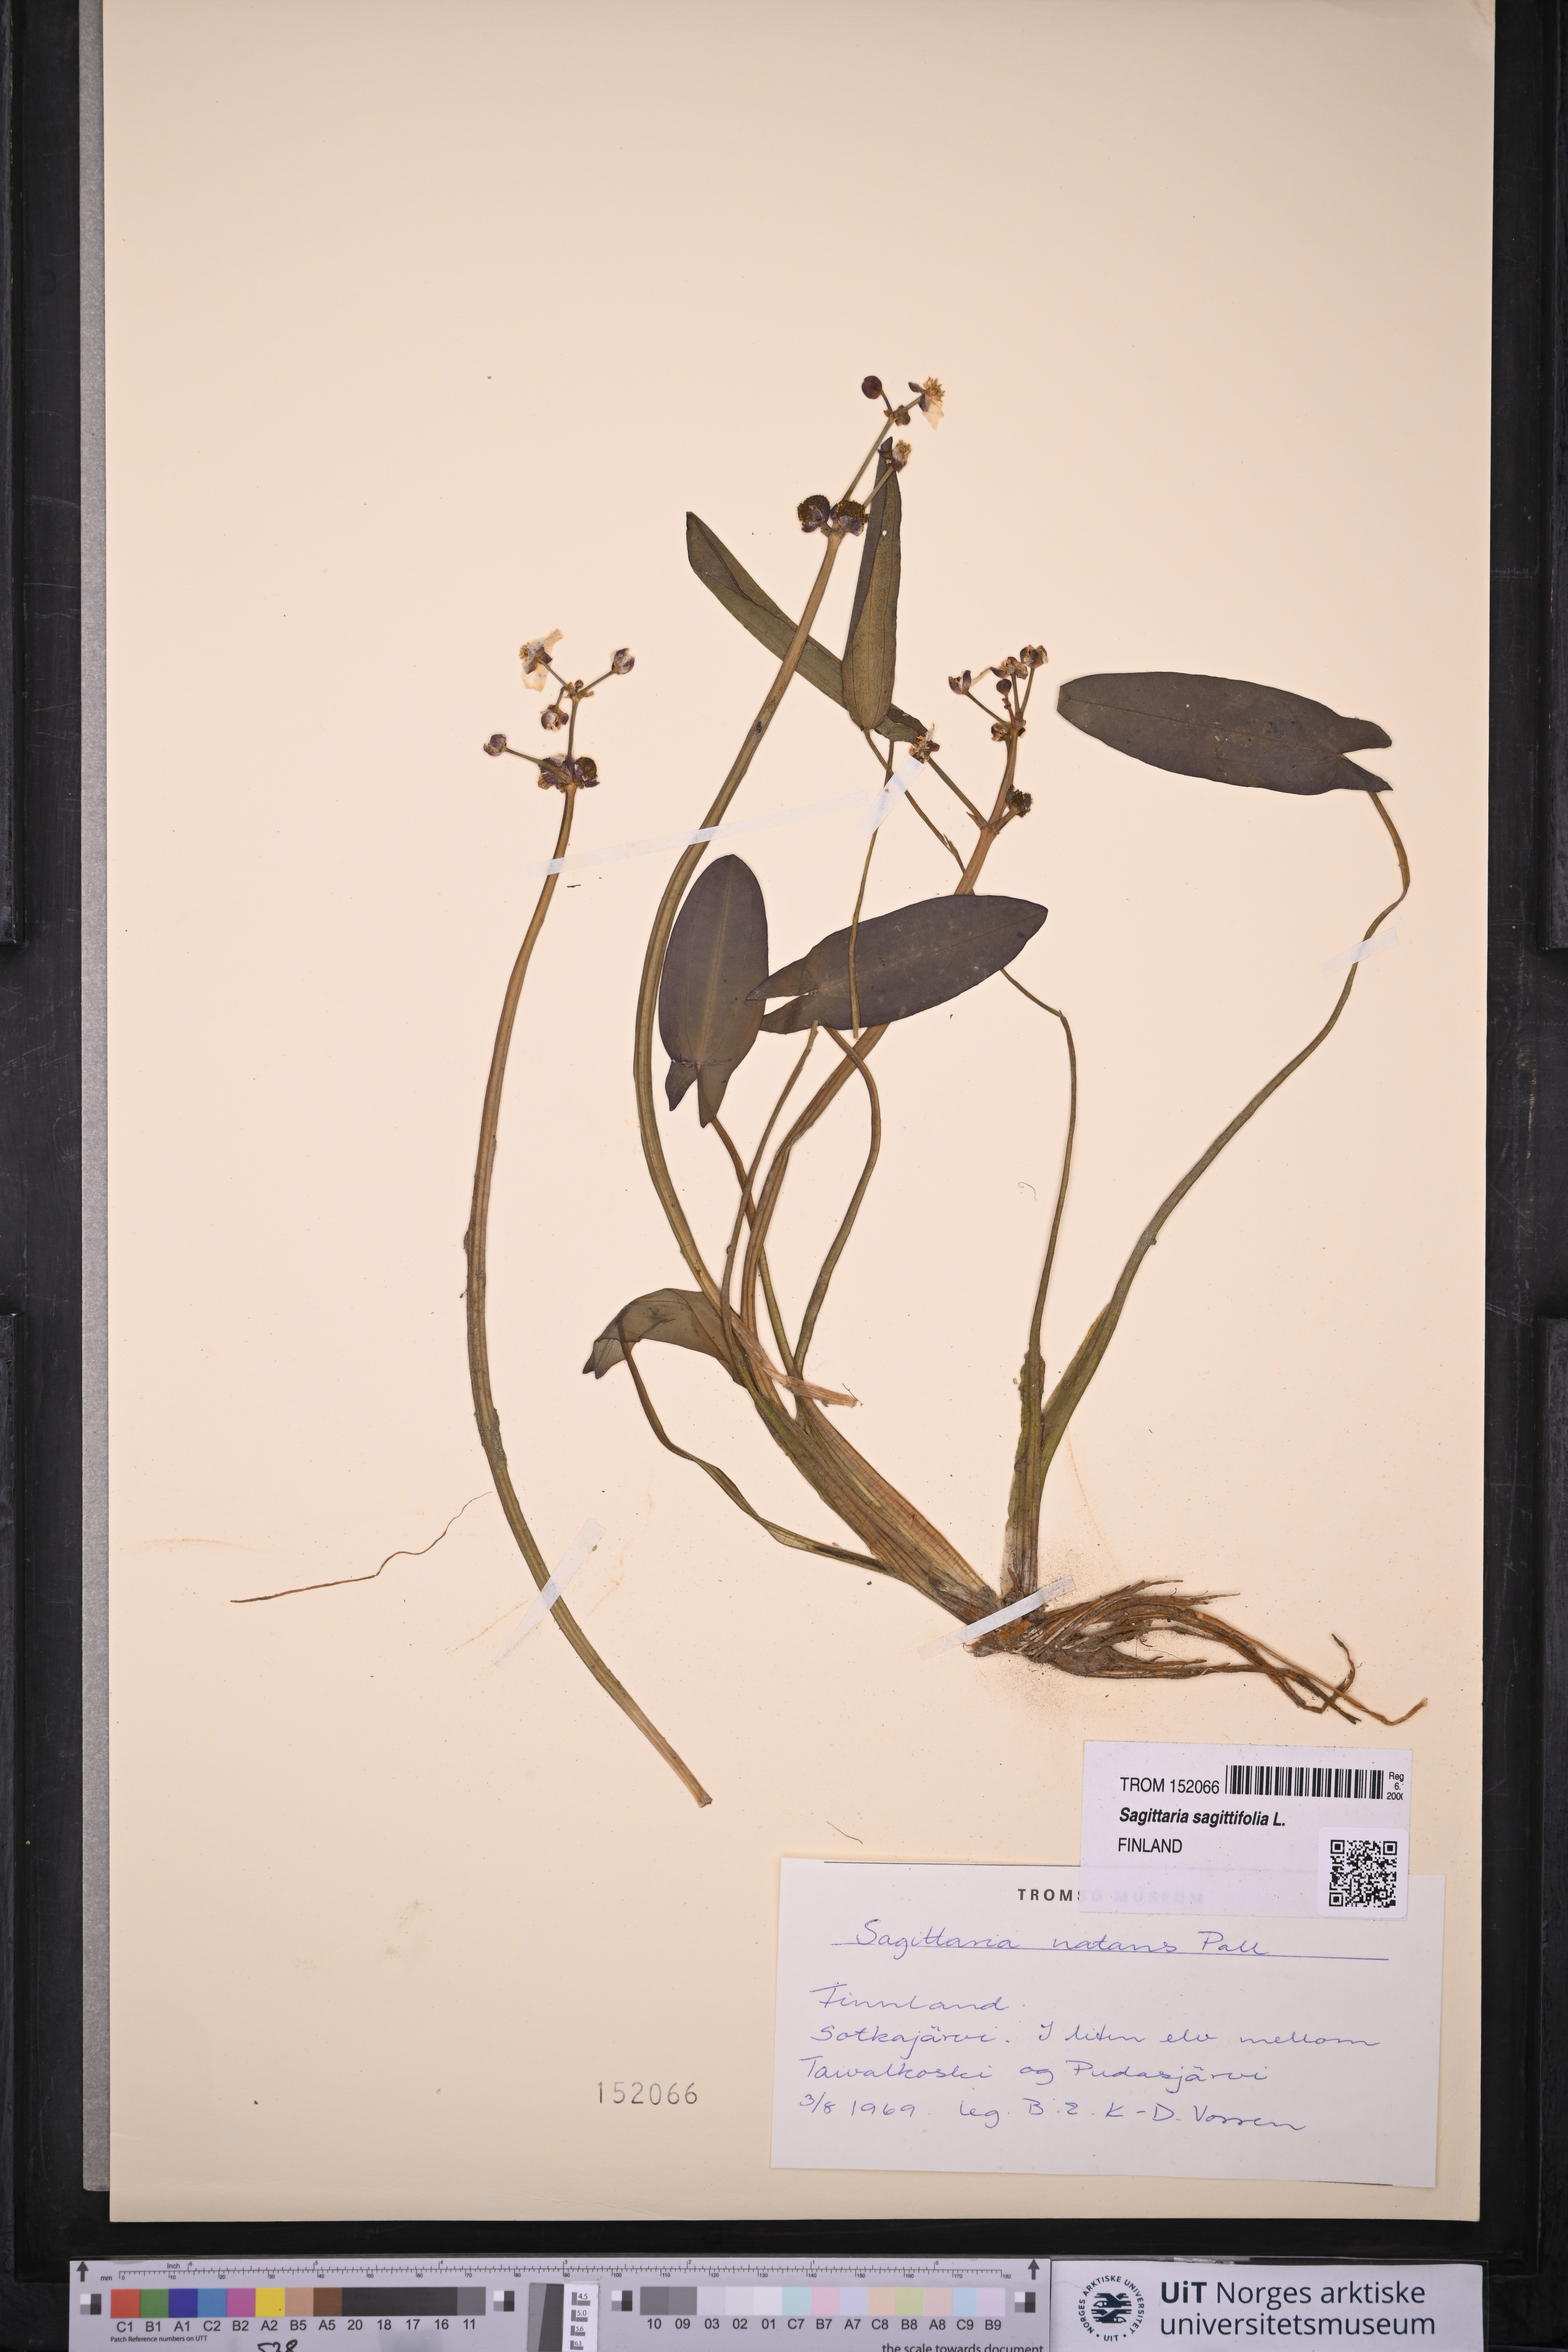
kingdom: Plantae
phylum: Tracheophyta
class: Liliopsida
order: Alismatales
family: Alismataceae
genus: Sagittaria
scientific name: Sagittaria sagittifolia
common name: Arrowhead
